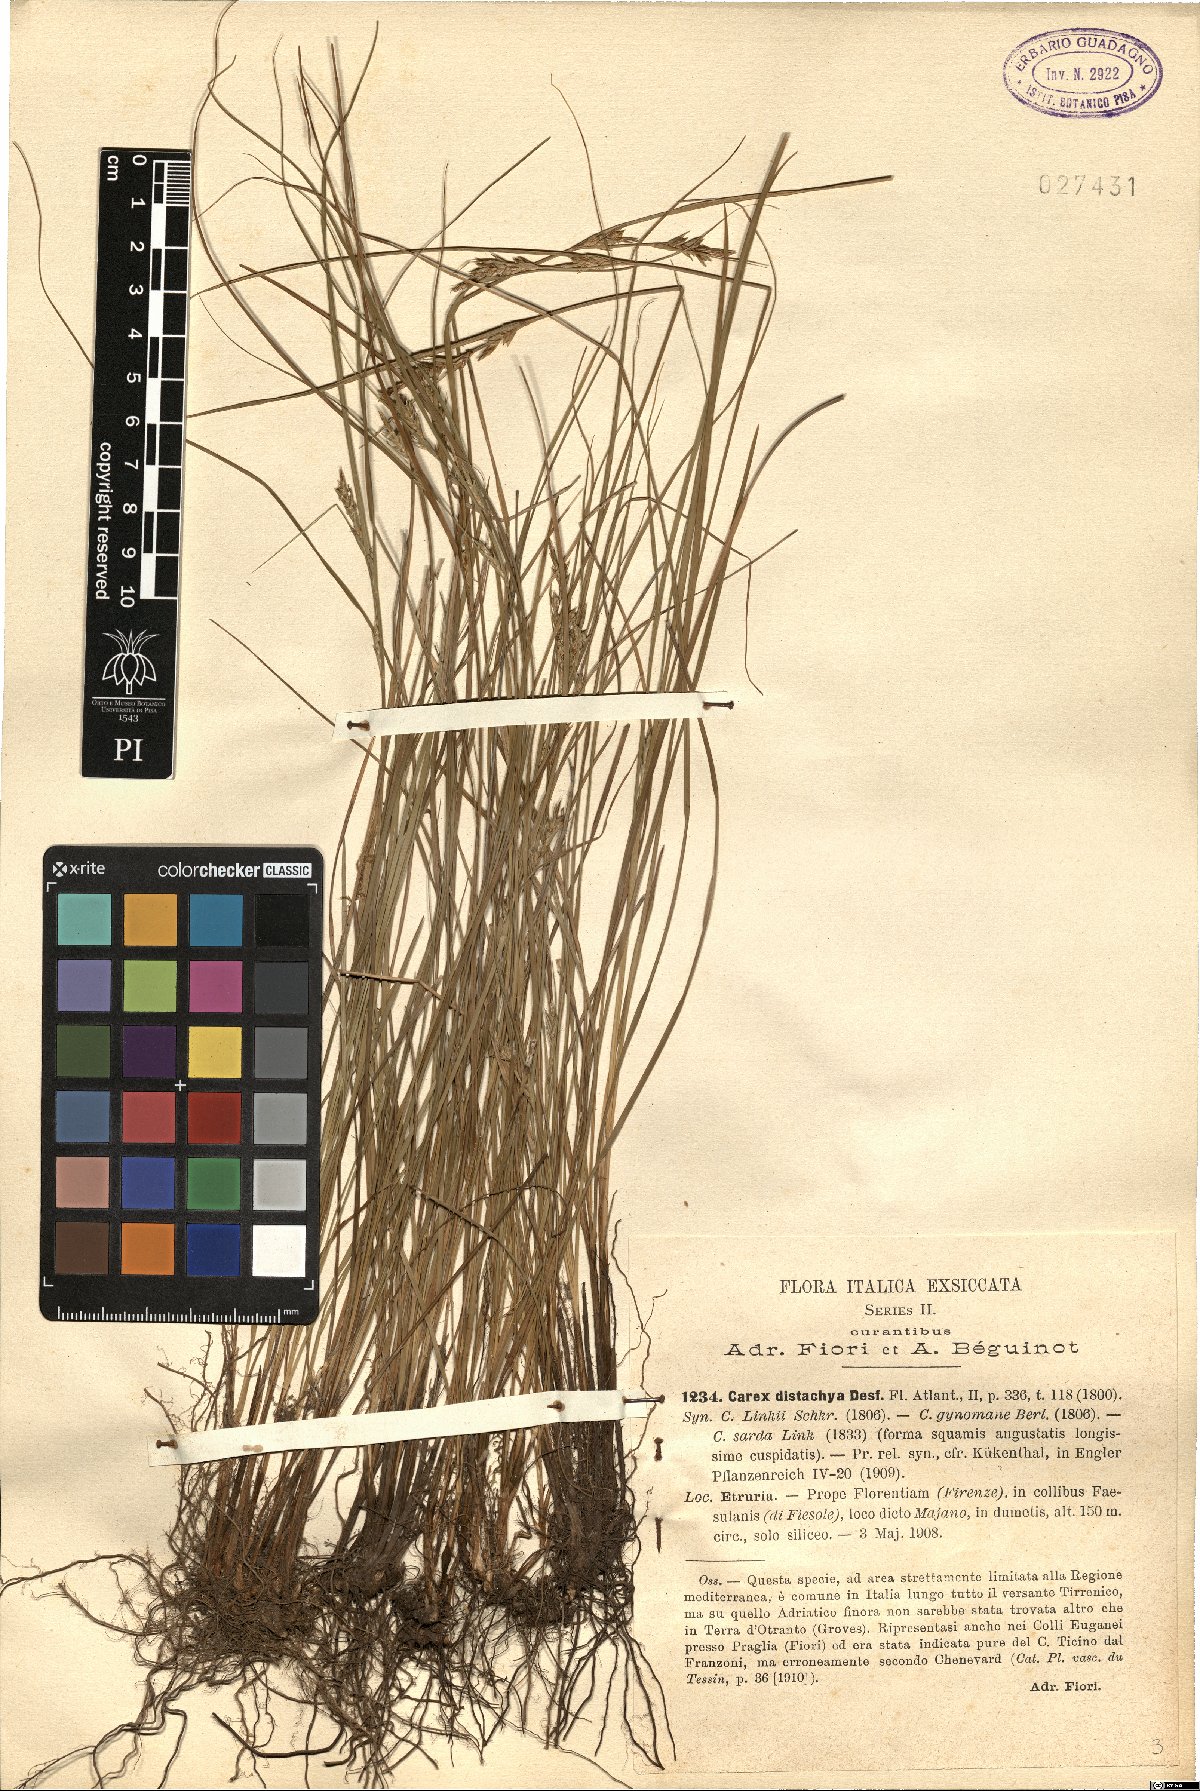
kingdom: Plantae
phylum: Tracheophyta
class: Liliopsida
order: Poales
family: Cyperaceae
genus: Carex
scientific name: Carex distachya
